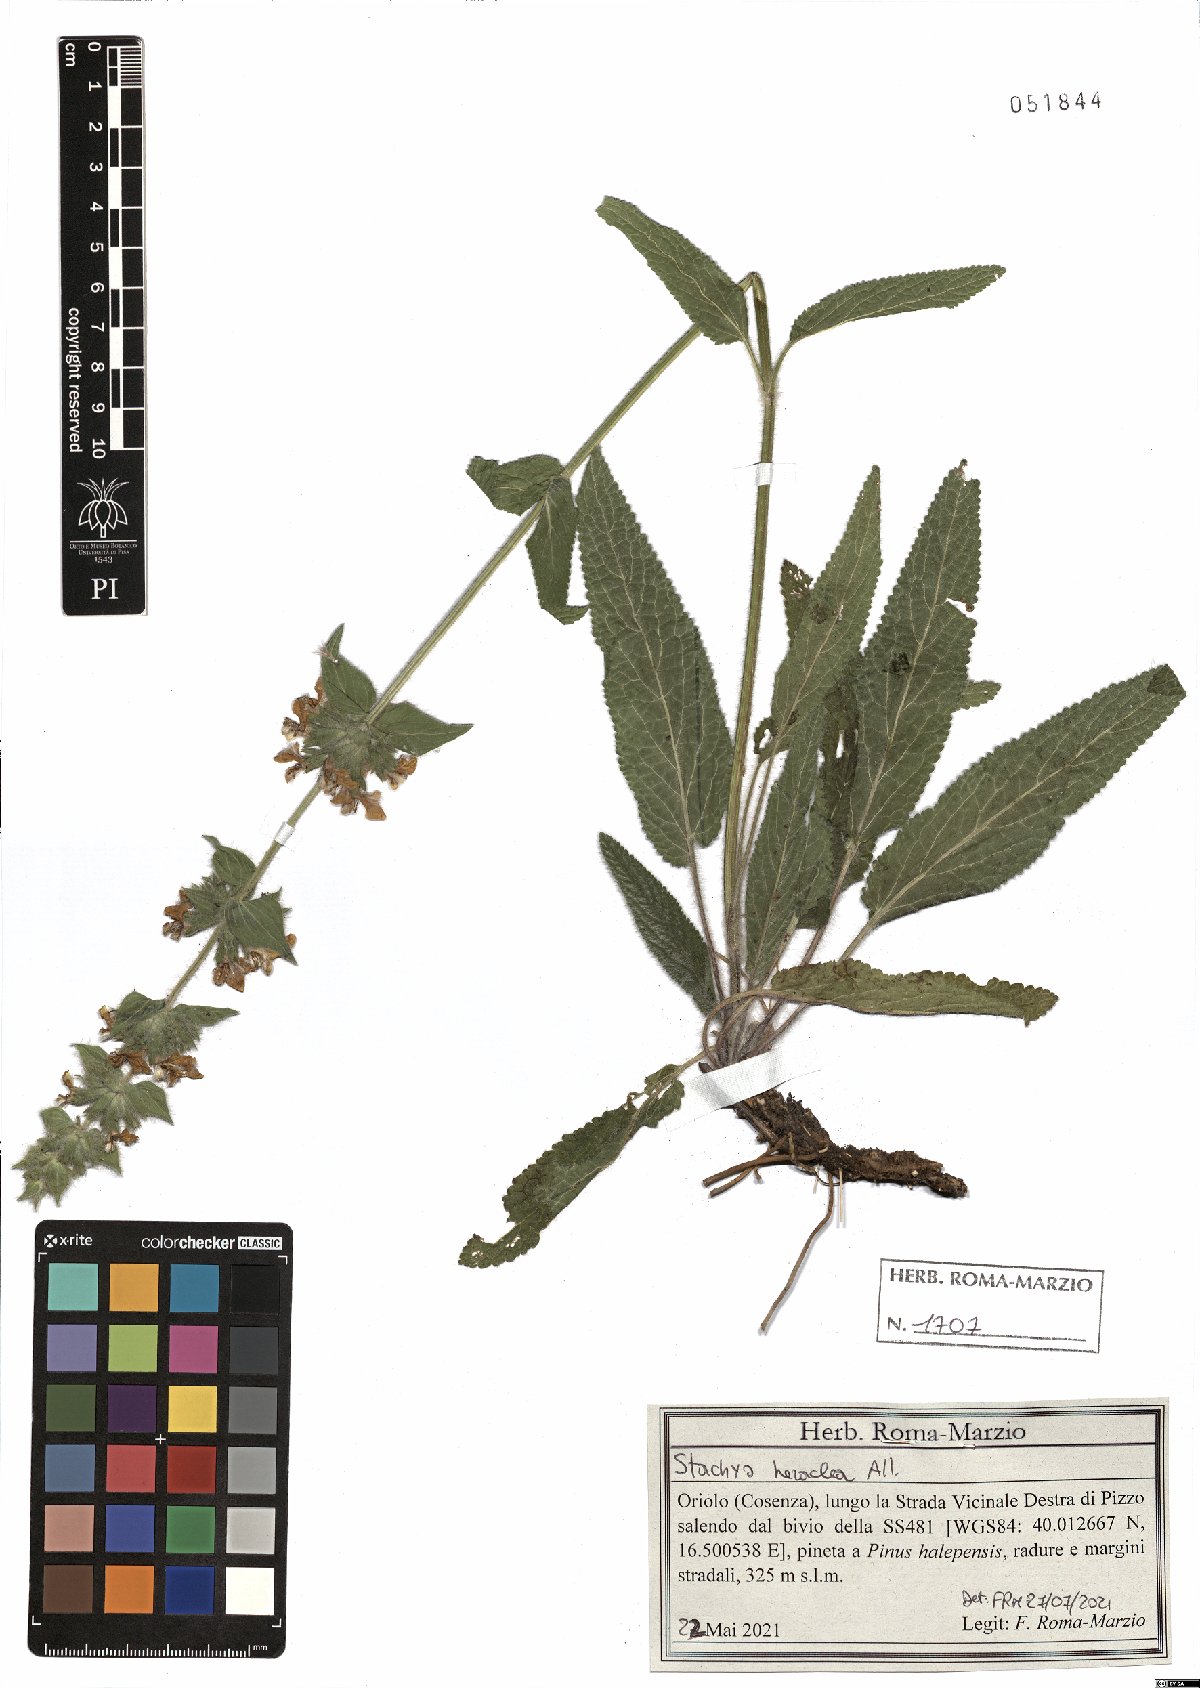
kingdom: Plantae
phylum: Tracheophyta
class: Magnoliopsida
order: Lamiales
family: Lamiaceae
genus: Stachys
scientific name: Stachys heraclea
